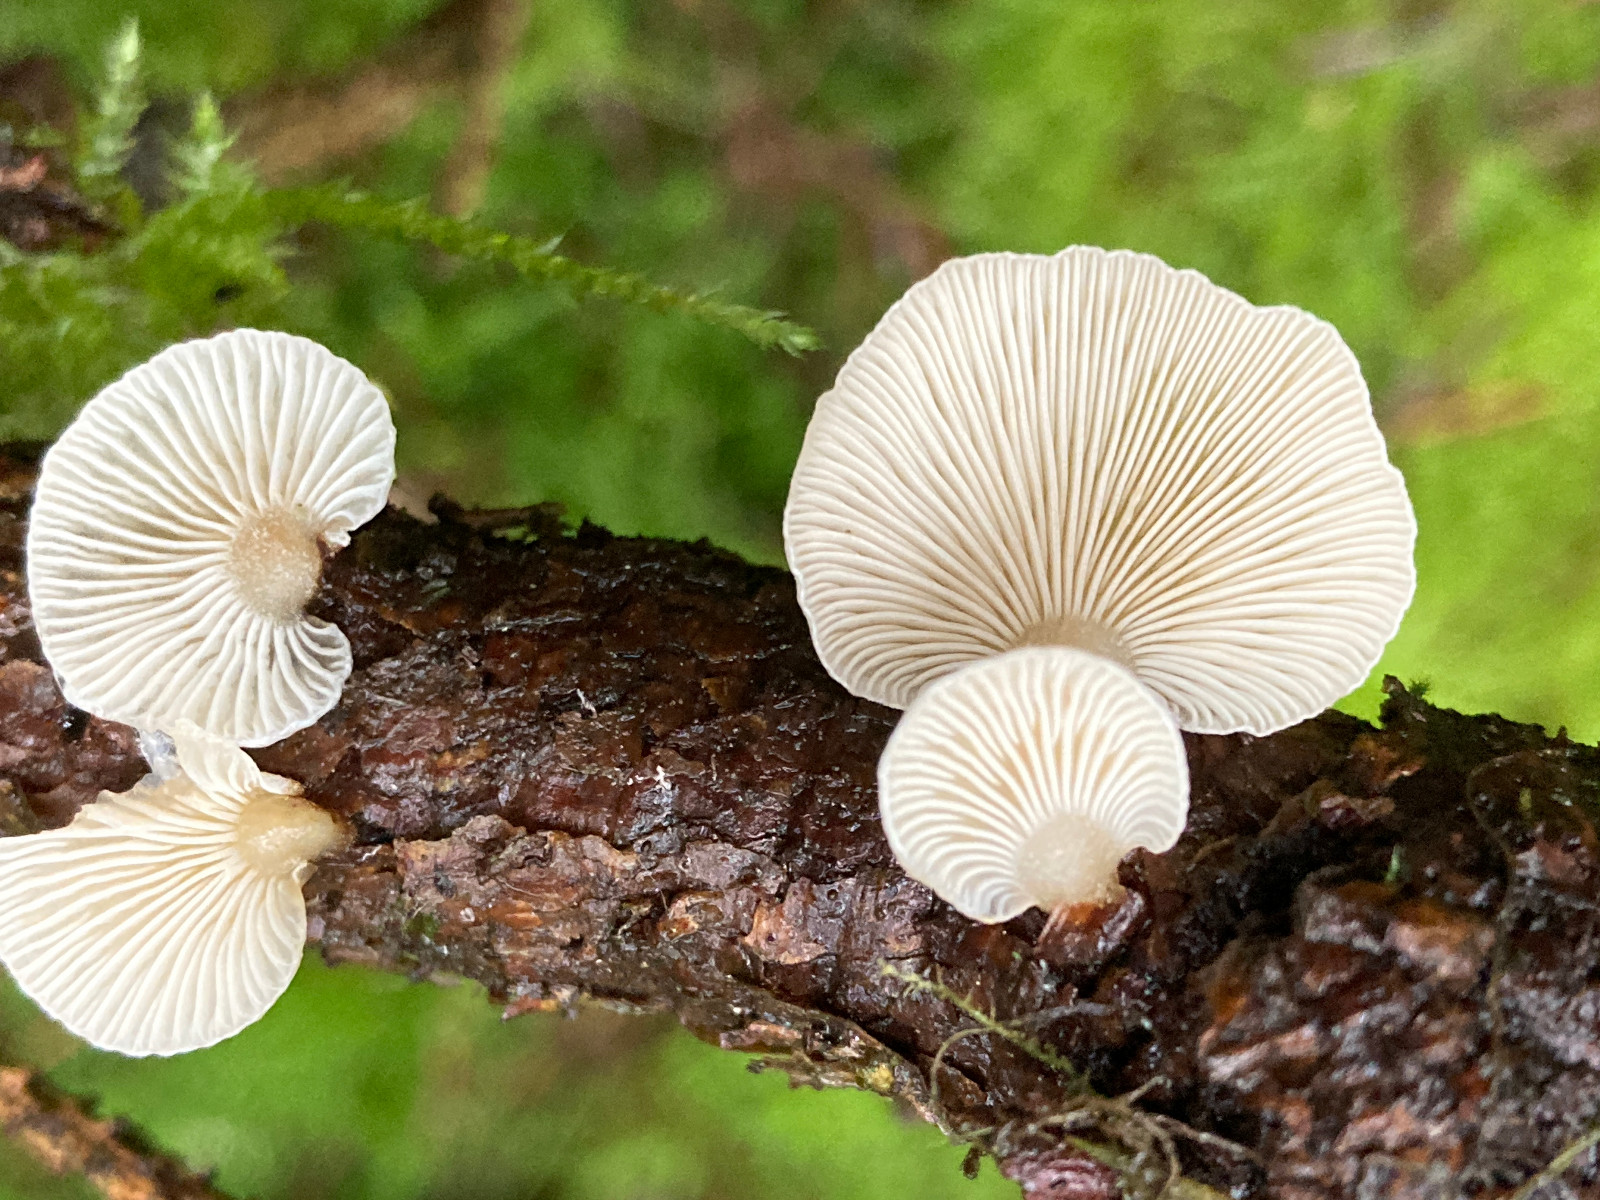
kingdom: Fungi
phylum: Basidiomycota
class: Agaricomycetes
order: Agaricales
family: Mycenaceae
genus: Panellus
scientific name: Panellus mitis
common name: mild epaulethat
